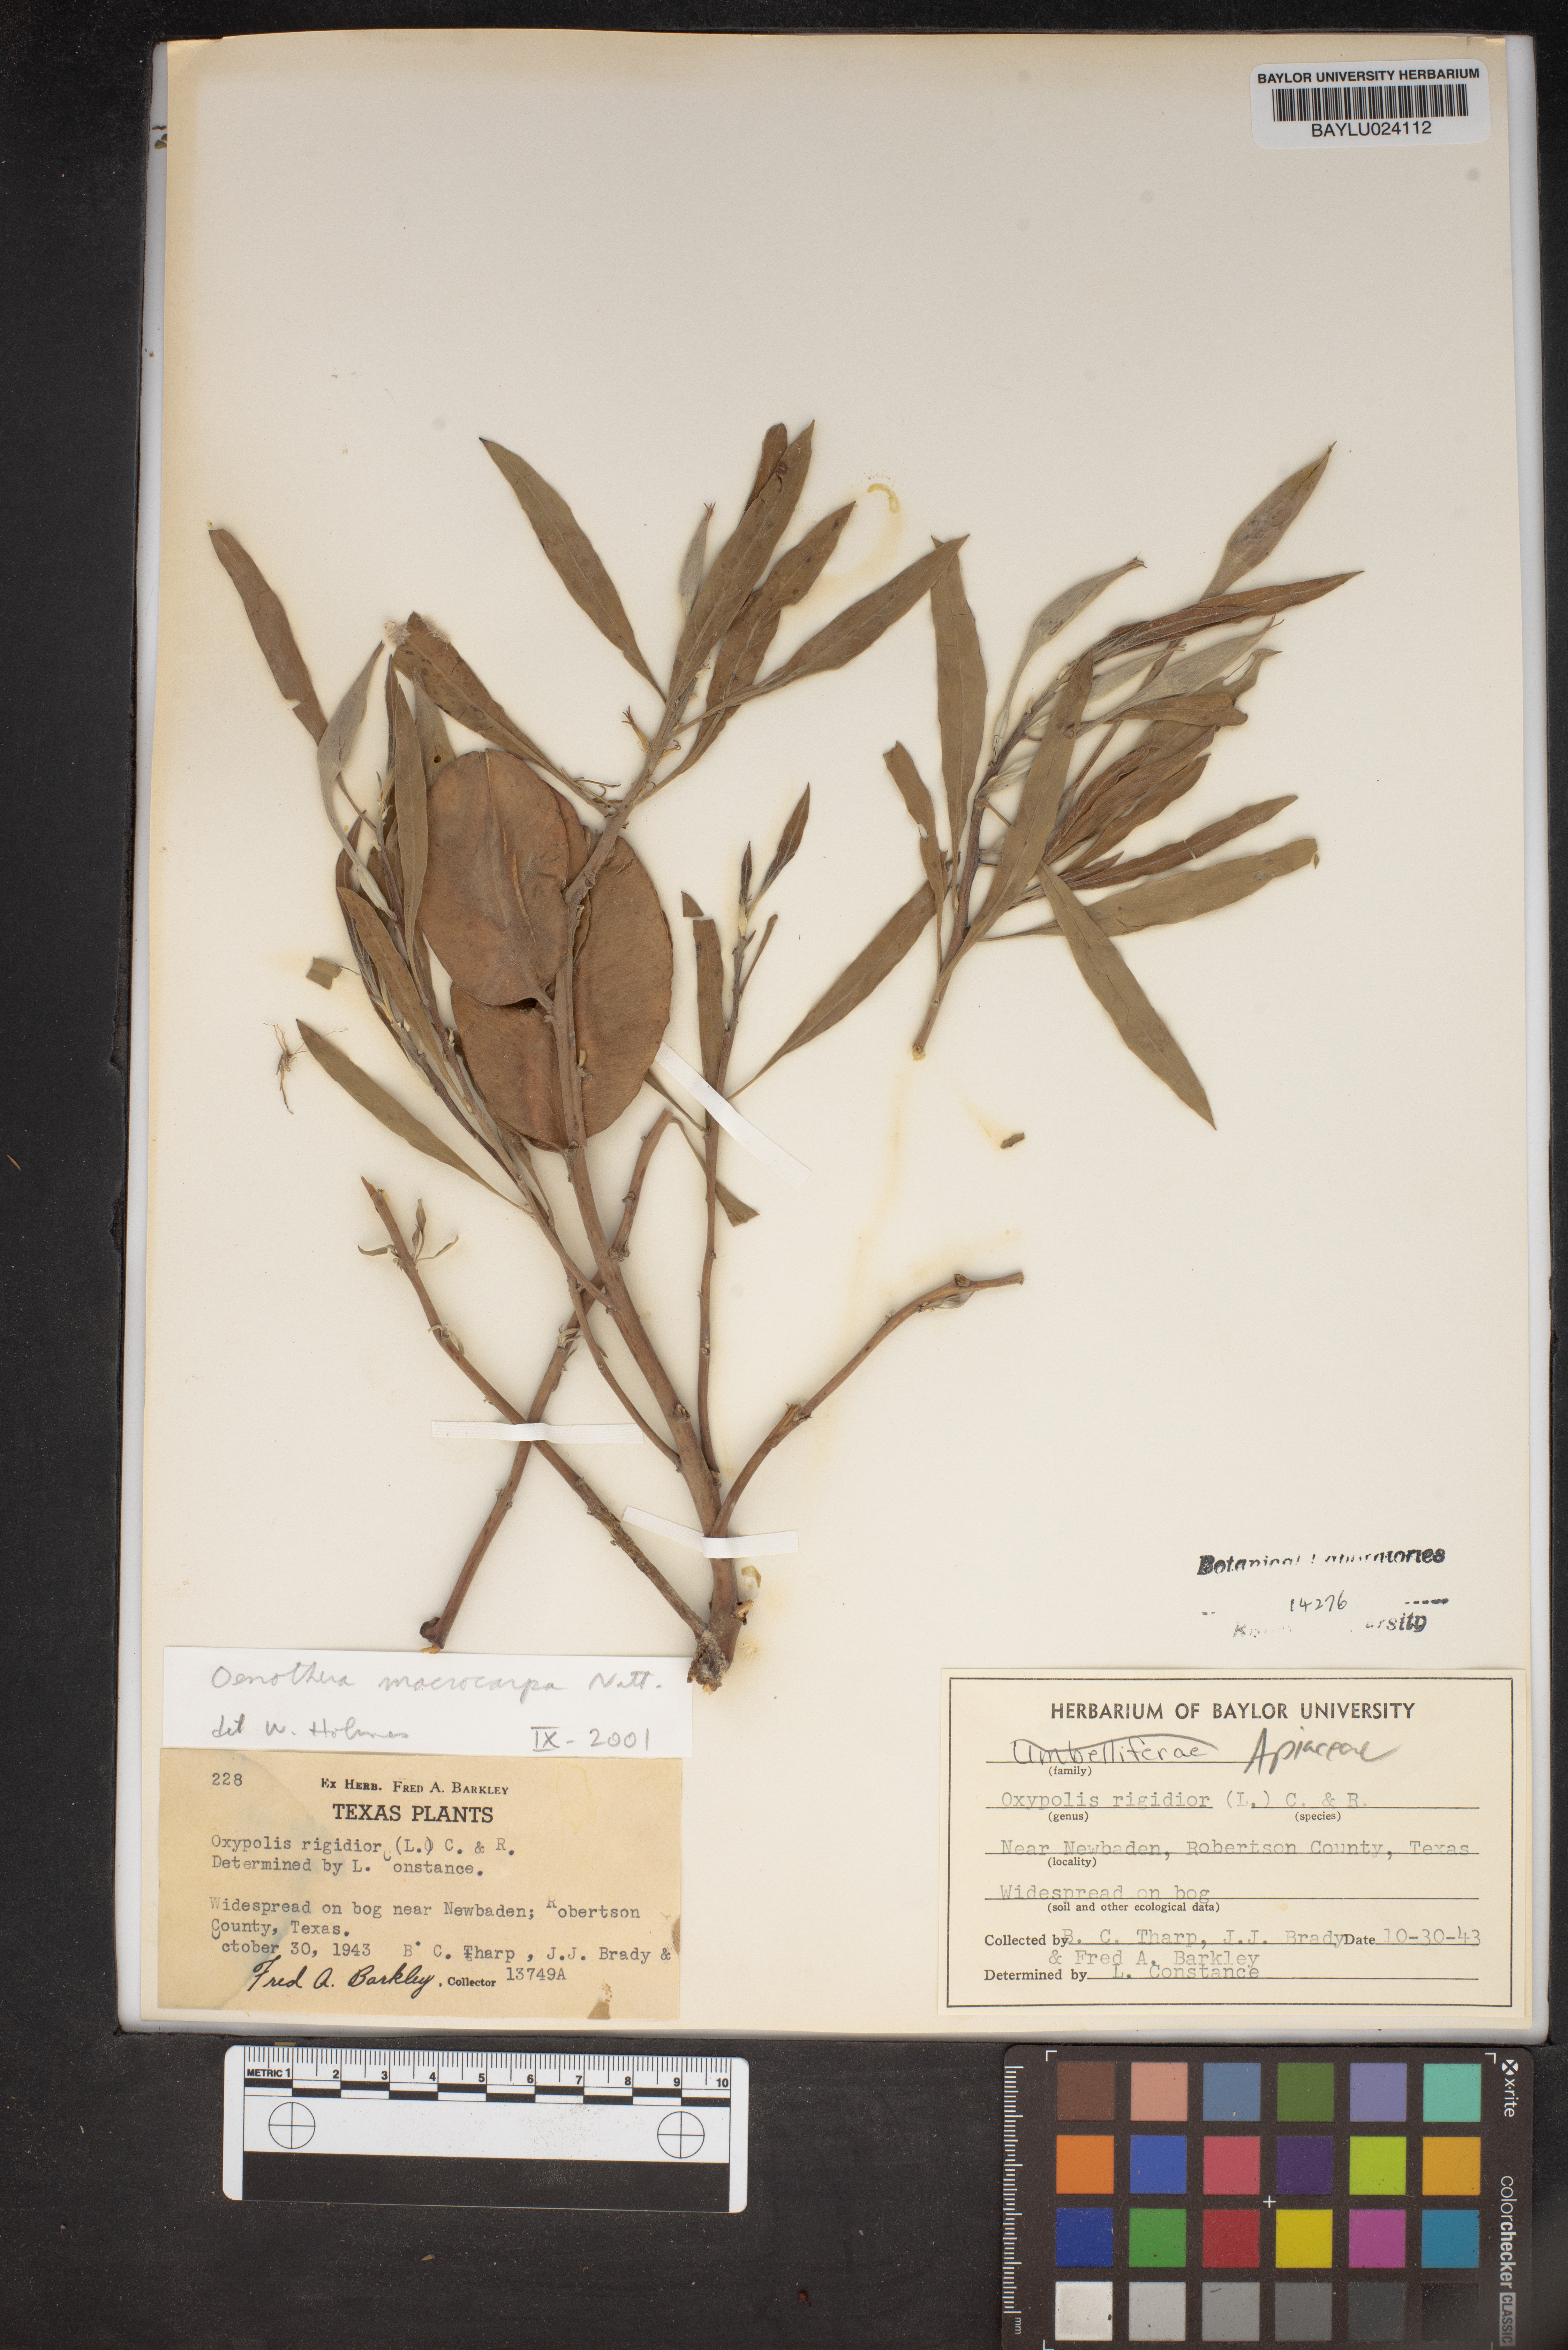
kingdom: Plantae
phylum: Tracheophyta
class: Magnoliopsida
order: Myrtales
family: Onagraceae
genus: Oenothera
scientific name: Oenothera macrocarpa
